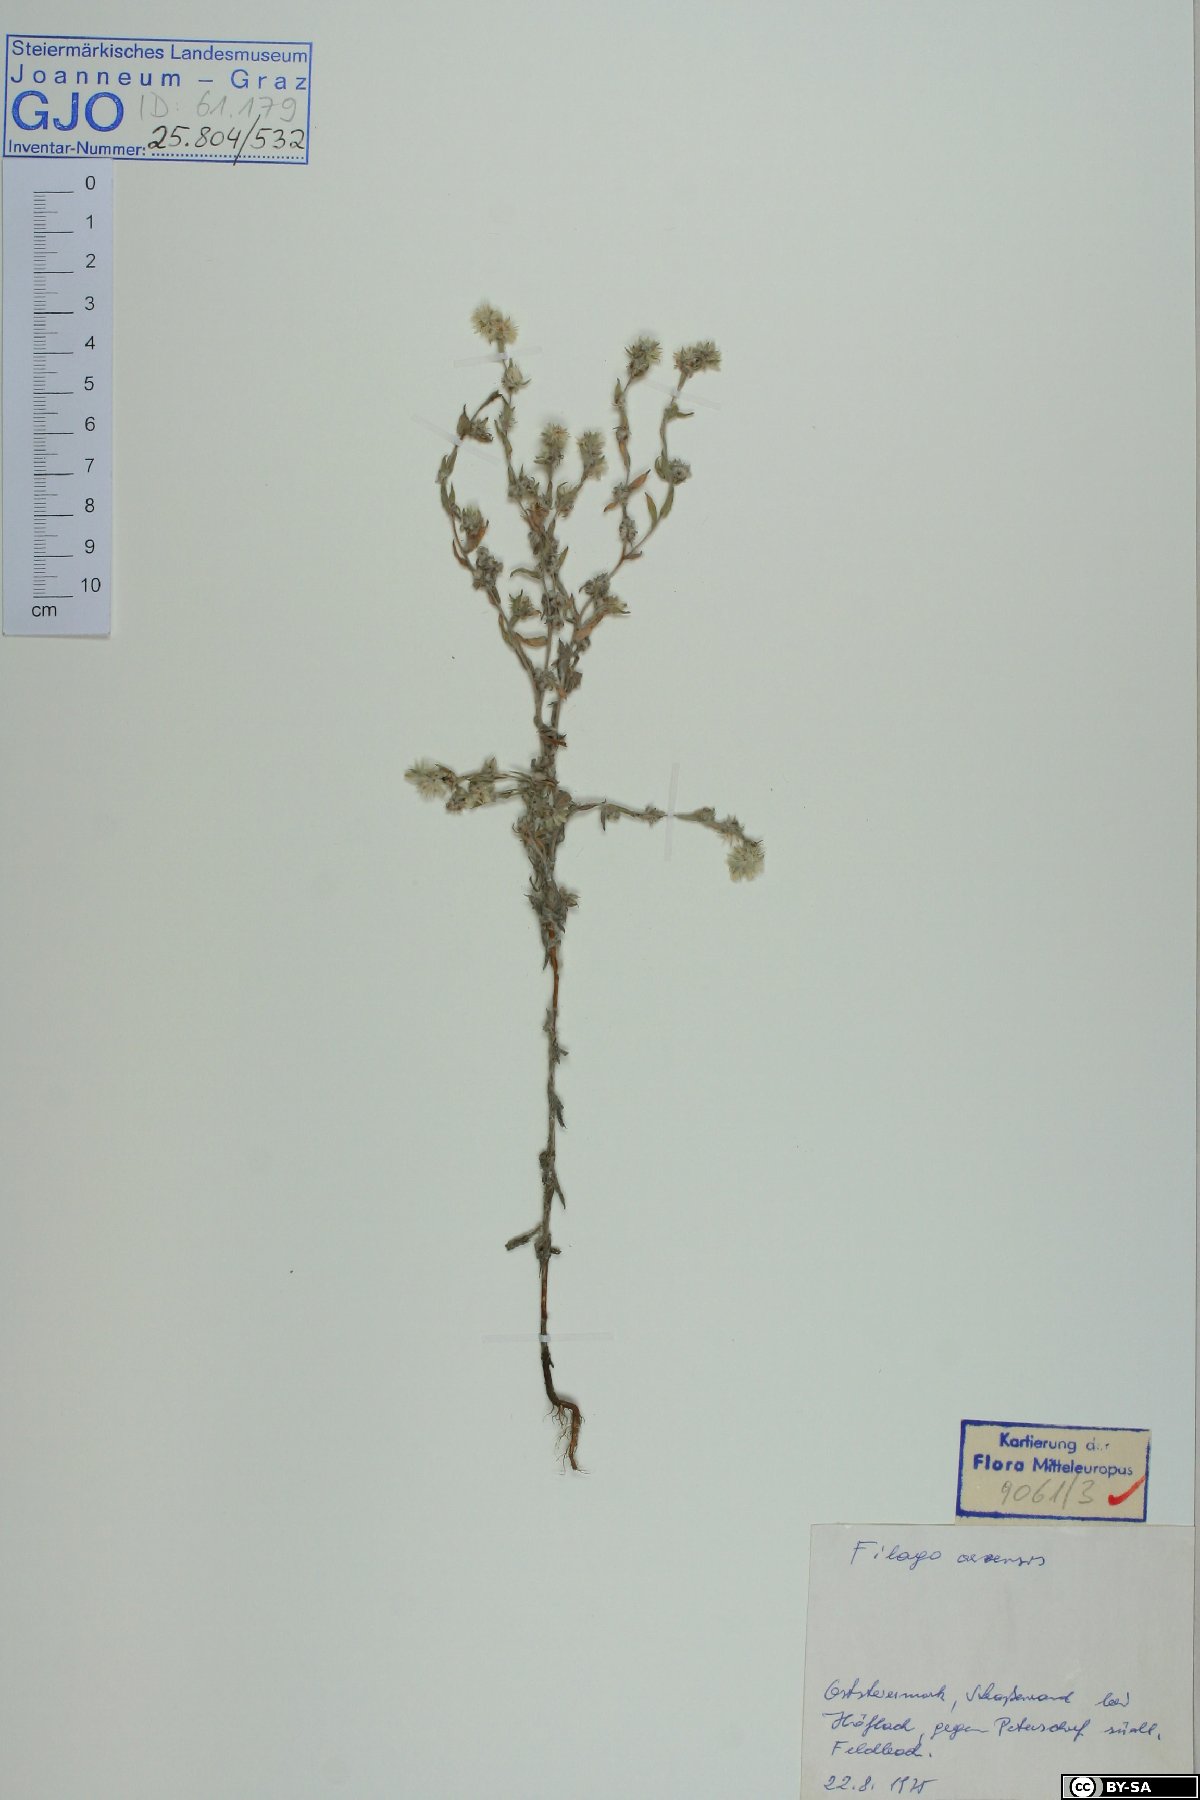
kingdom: Plantae
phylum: Tracheophyta
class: Magnoliopsida
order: Asterales
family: Asteraceae
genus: Filago
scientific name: Filago arvensis
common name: Field cudweed
